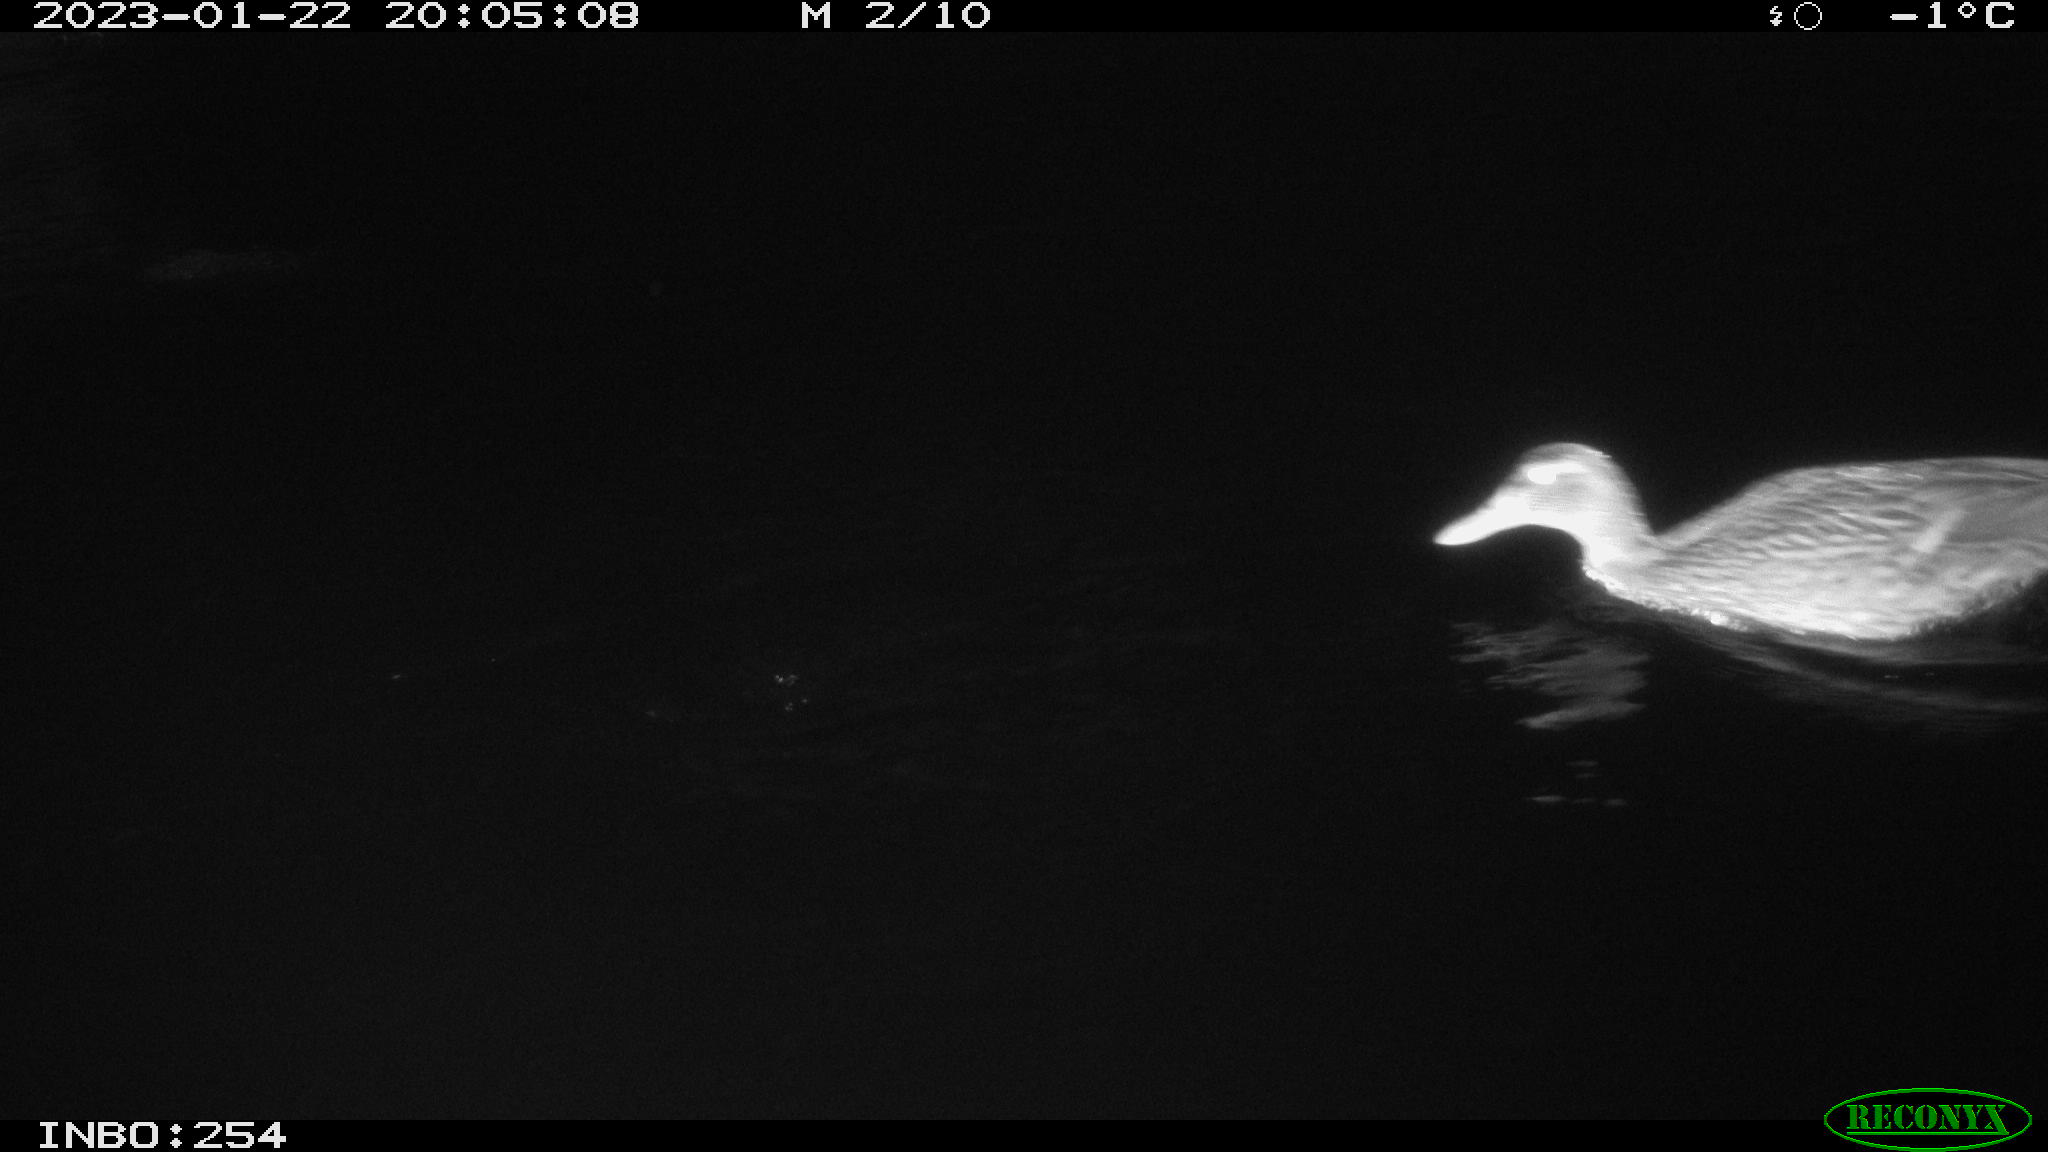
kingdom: Animalia
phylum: Chordata
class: Aves
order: Anseriformes
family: Anatidae
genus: Anas
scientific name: Anas
